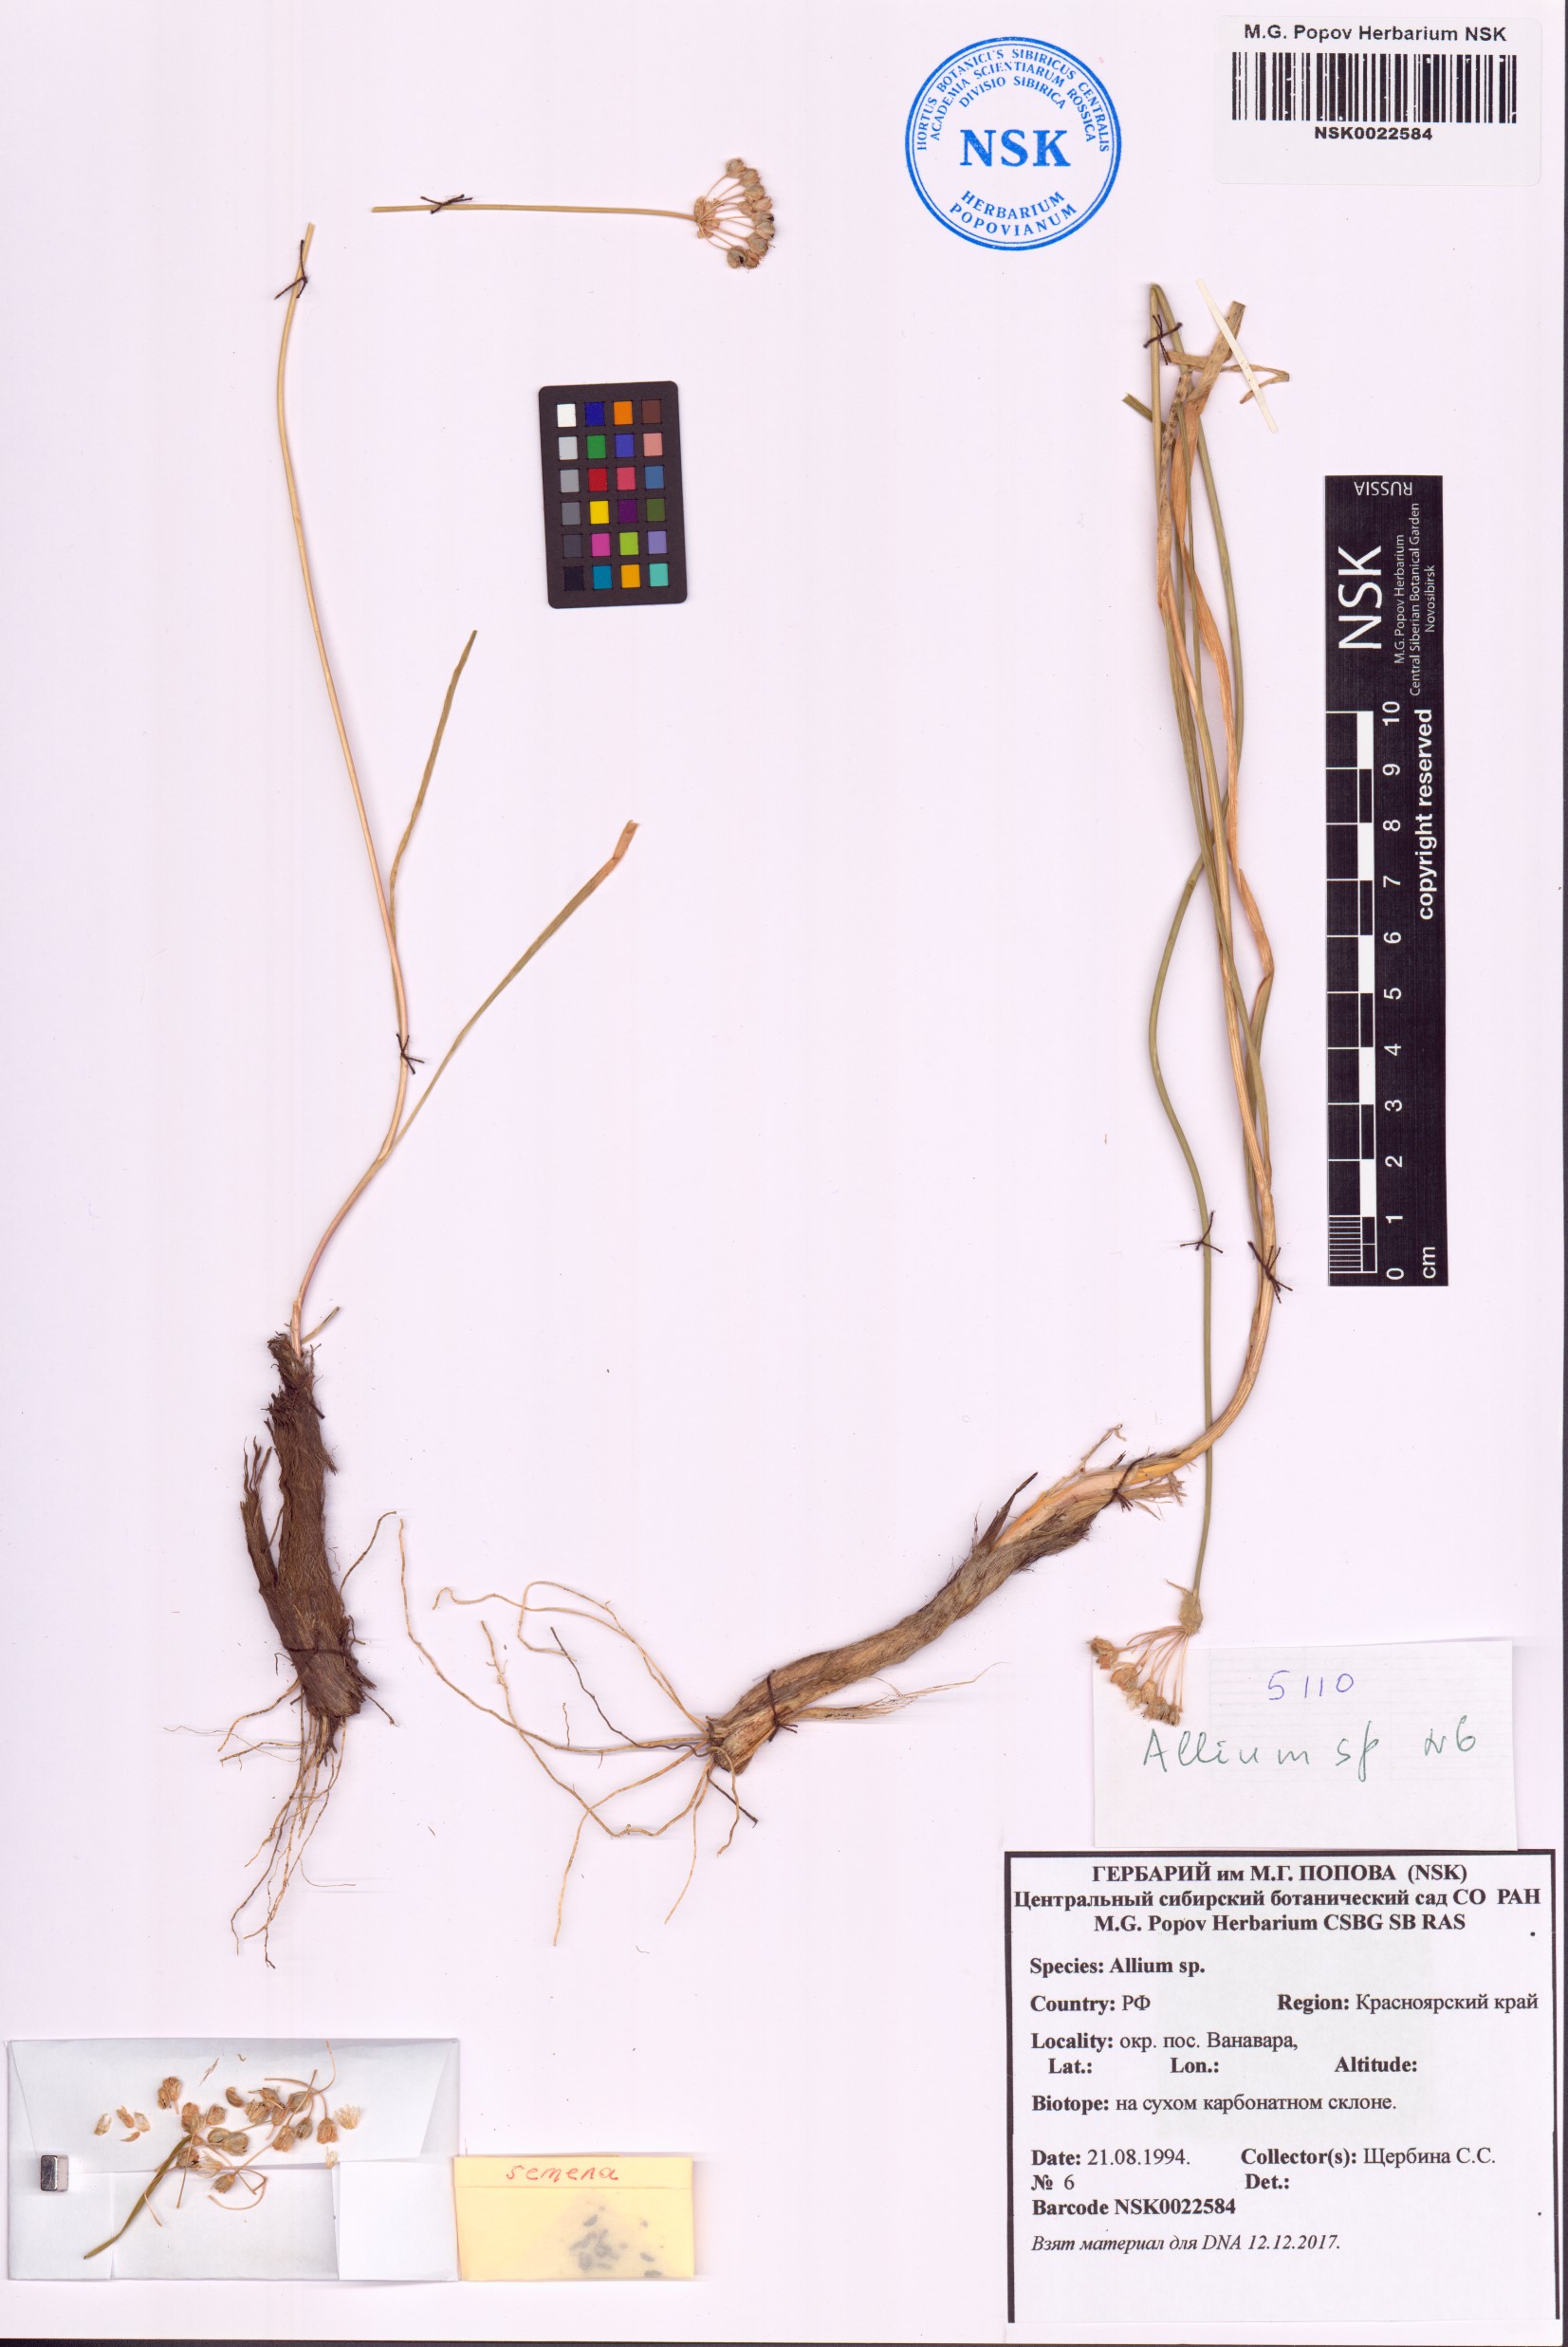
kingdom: Plantae
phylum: Tracheophyta
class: Liliopsida
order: Asparagales
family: Amaryllidaceae
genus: Allium
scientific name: Allium
